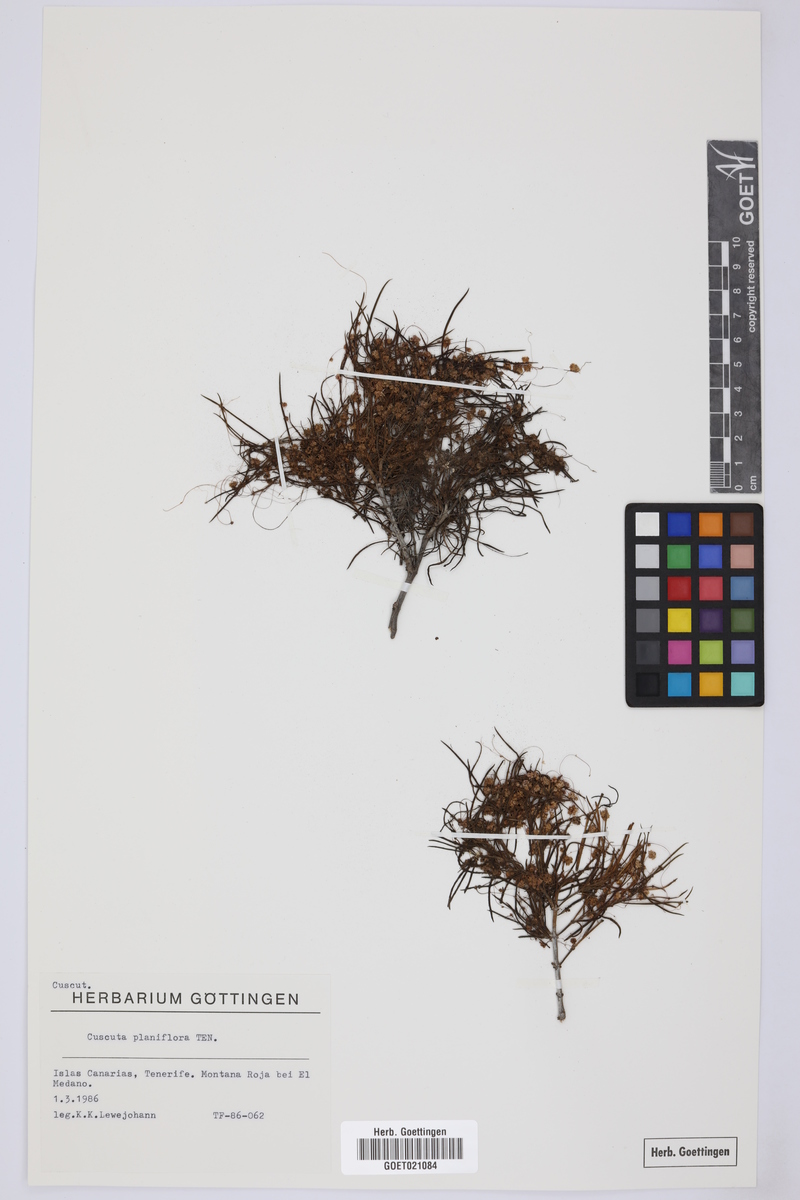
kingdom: Plantae
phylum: Tracheophyta
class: Magnoliopsida
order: Solanales
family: Convolvulaceae
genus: Cuscuta
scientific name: Cuscuta planiflora
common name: Small-seed alfalfa dodder
